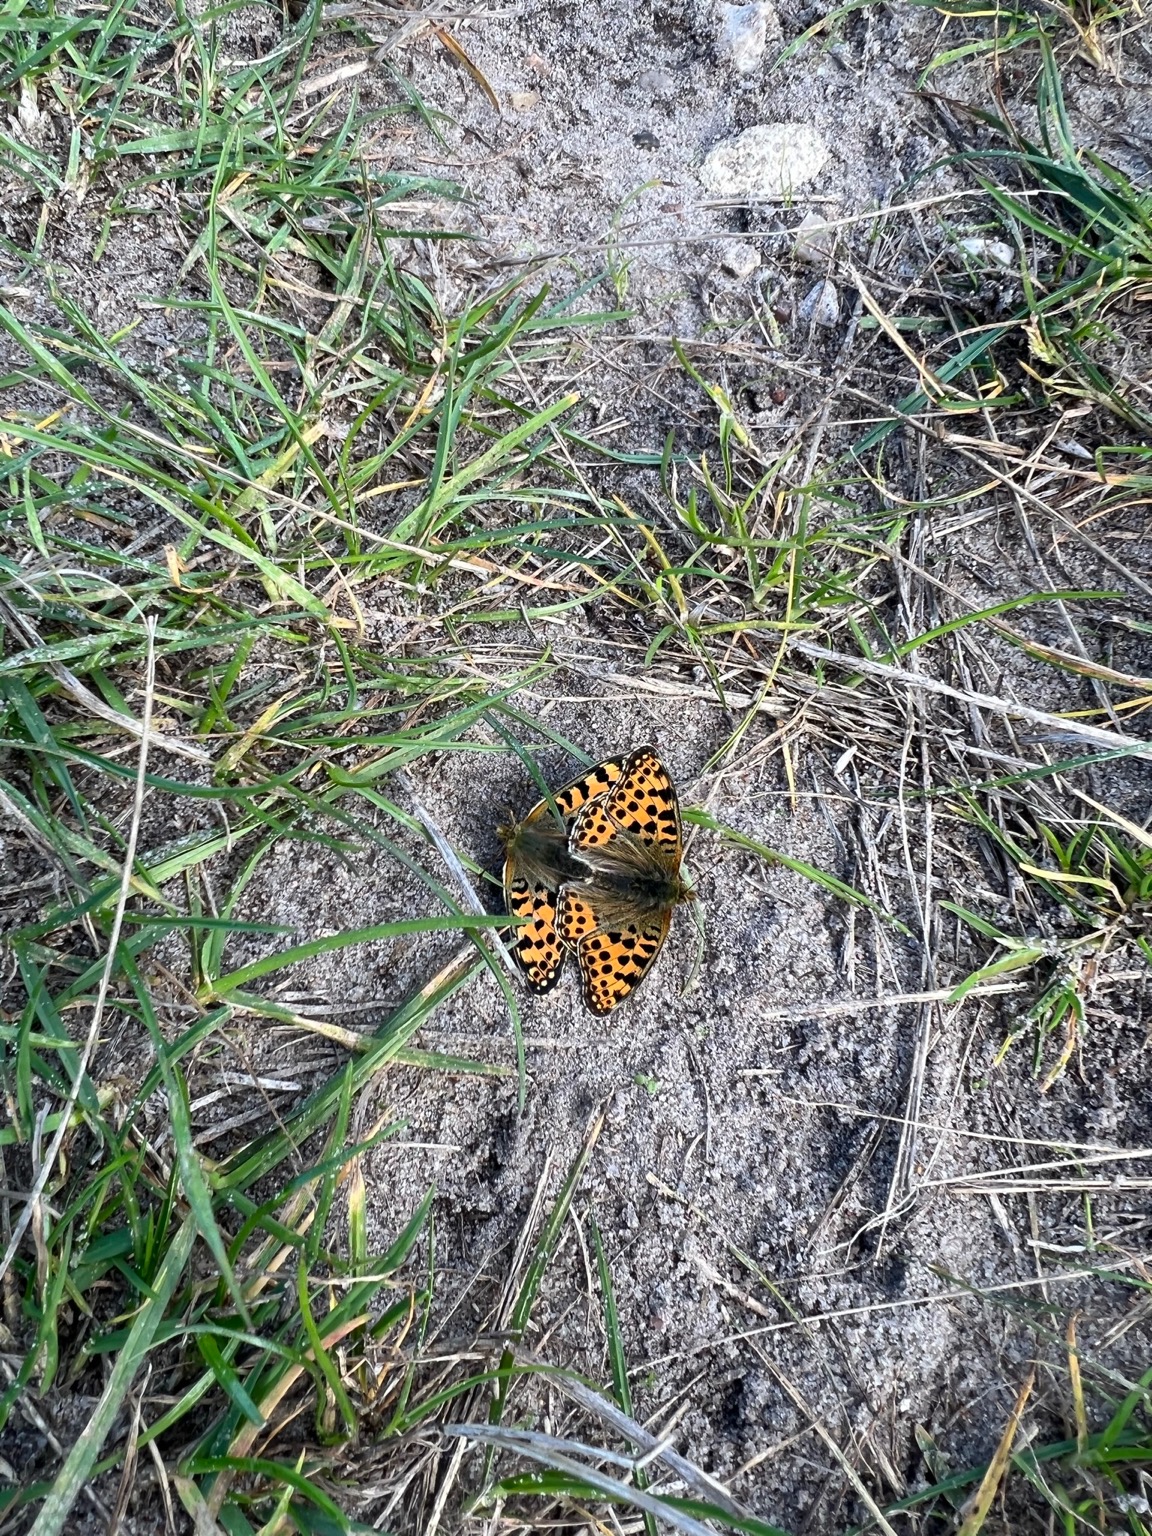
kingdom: Animalia
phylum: Arthropoda
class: Insecta
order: Lepidoptera
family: Nymphalidae
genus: Issoria
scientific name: Issoria lathonia
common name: Storplettet perlemorsommerfugl
